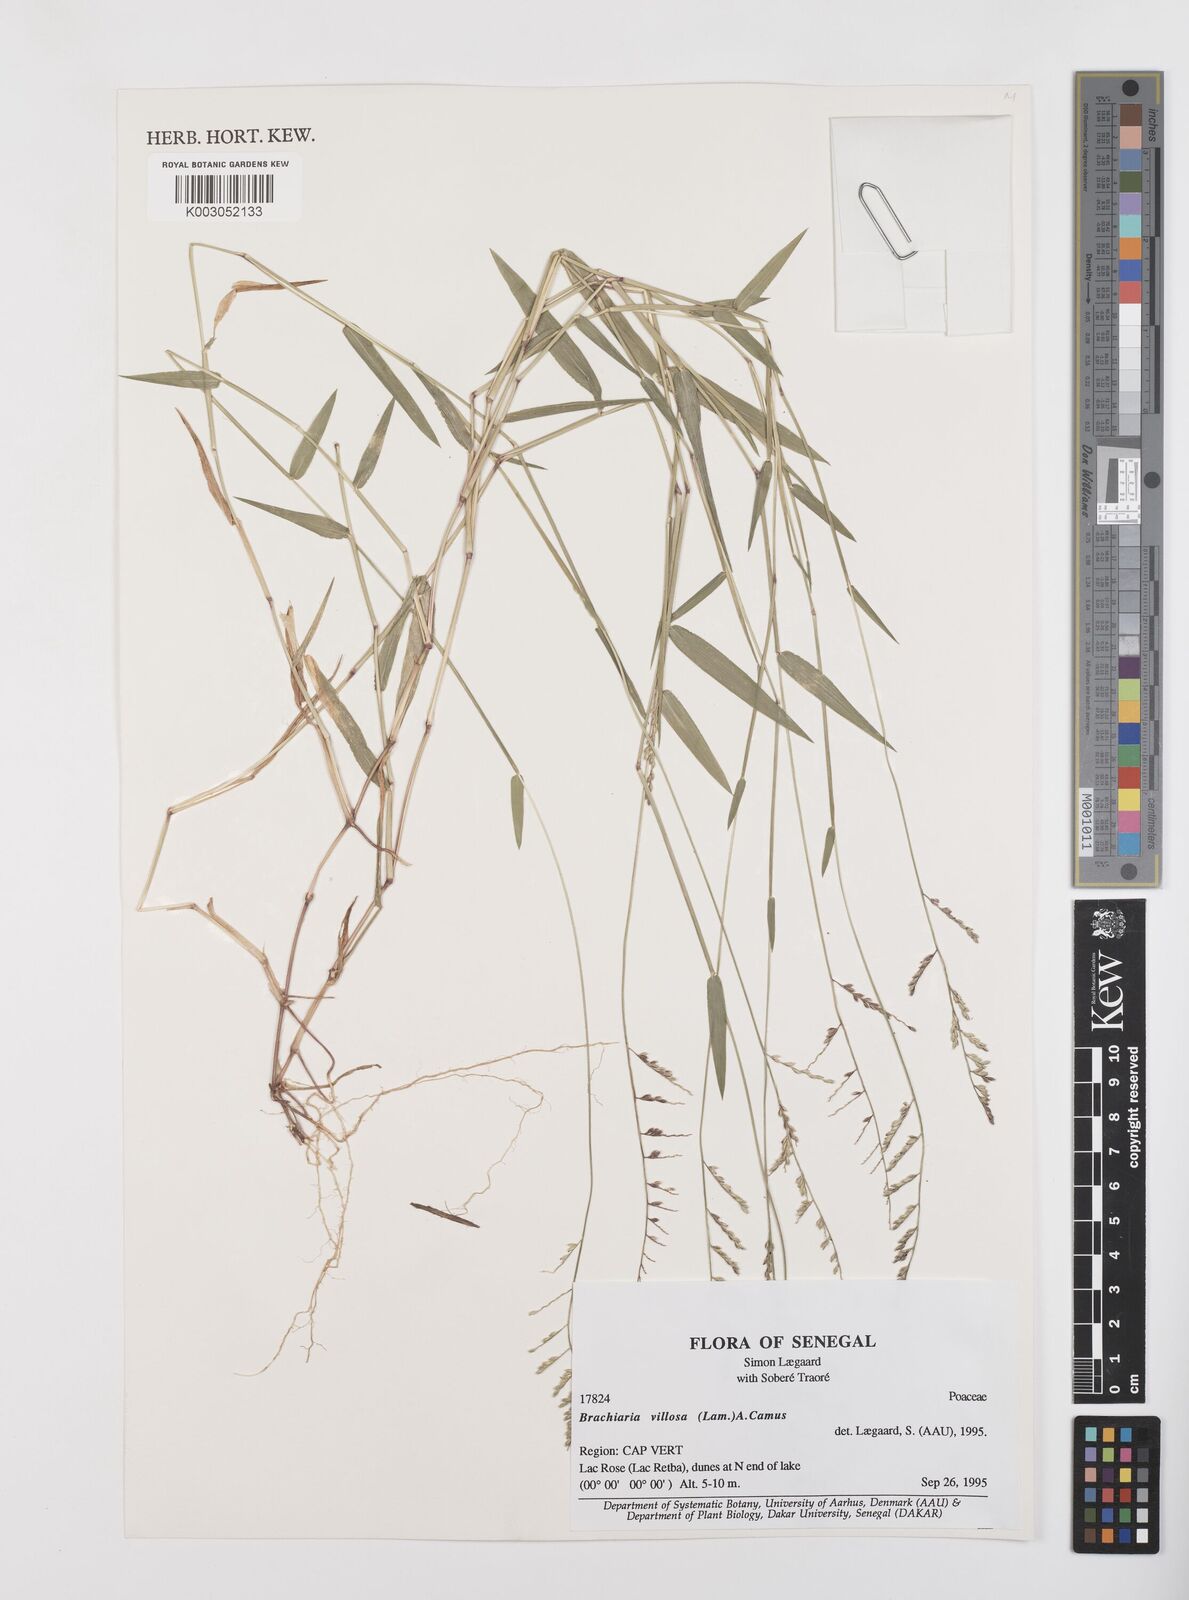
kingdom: Plantae
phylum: Tracheophyta
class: Liliopsida
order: Poales
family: Poaceae
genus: Urochloa
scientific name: Urochloa villosa
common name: Hairy signalgrass
